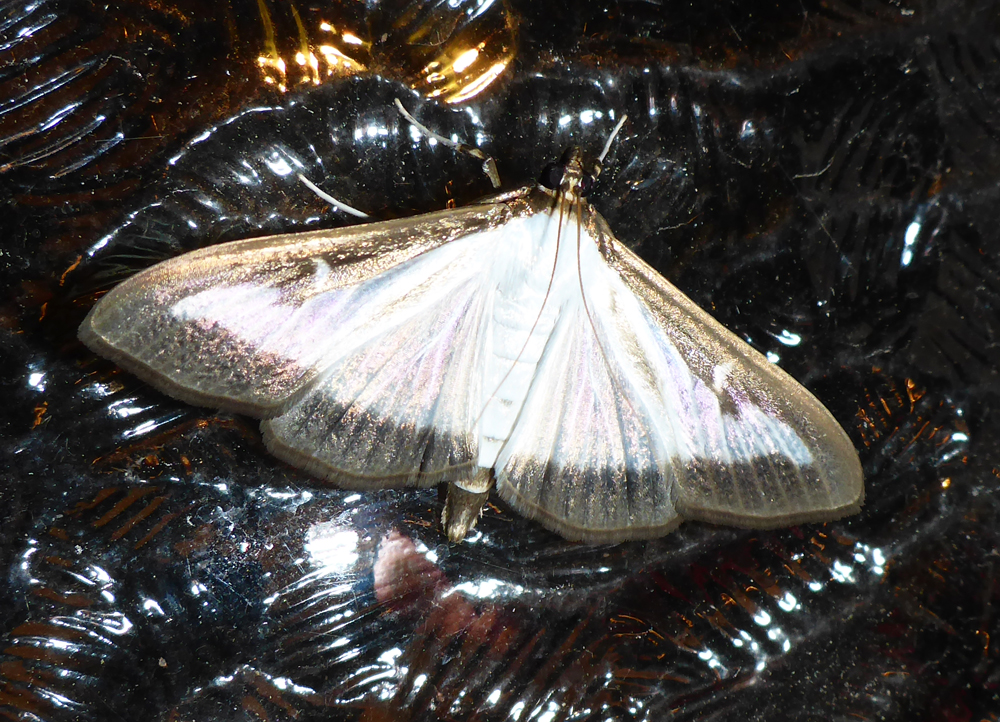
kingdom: Animalia
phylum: Arthropoda
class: Insecta
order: Lepidoptera
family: Crambidae
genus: Cydalima
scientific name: Cydalima perspectalis
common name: Box tree moth
